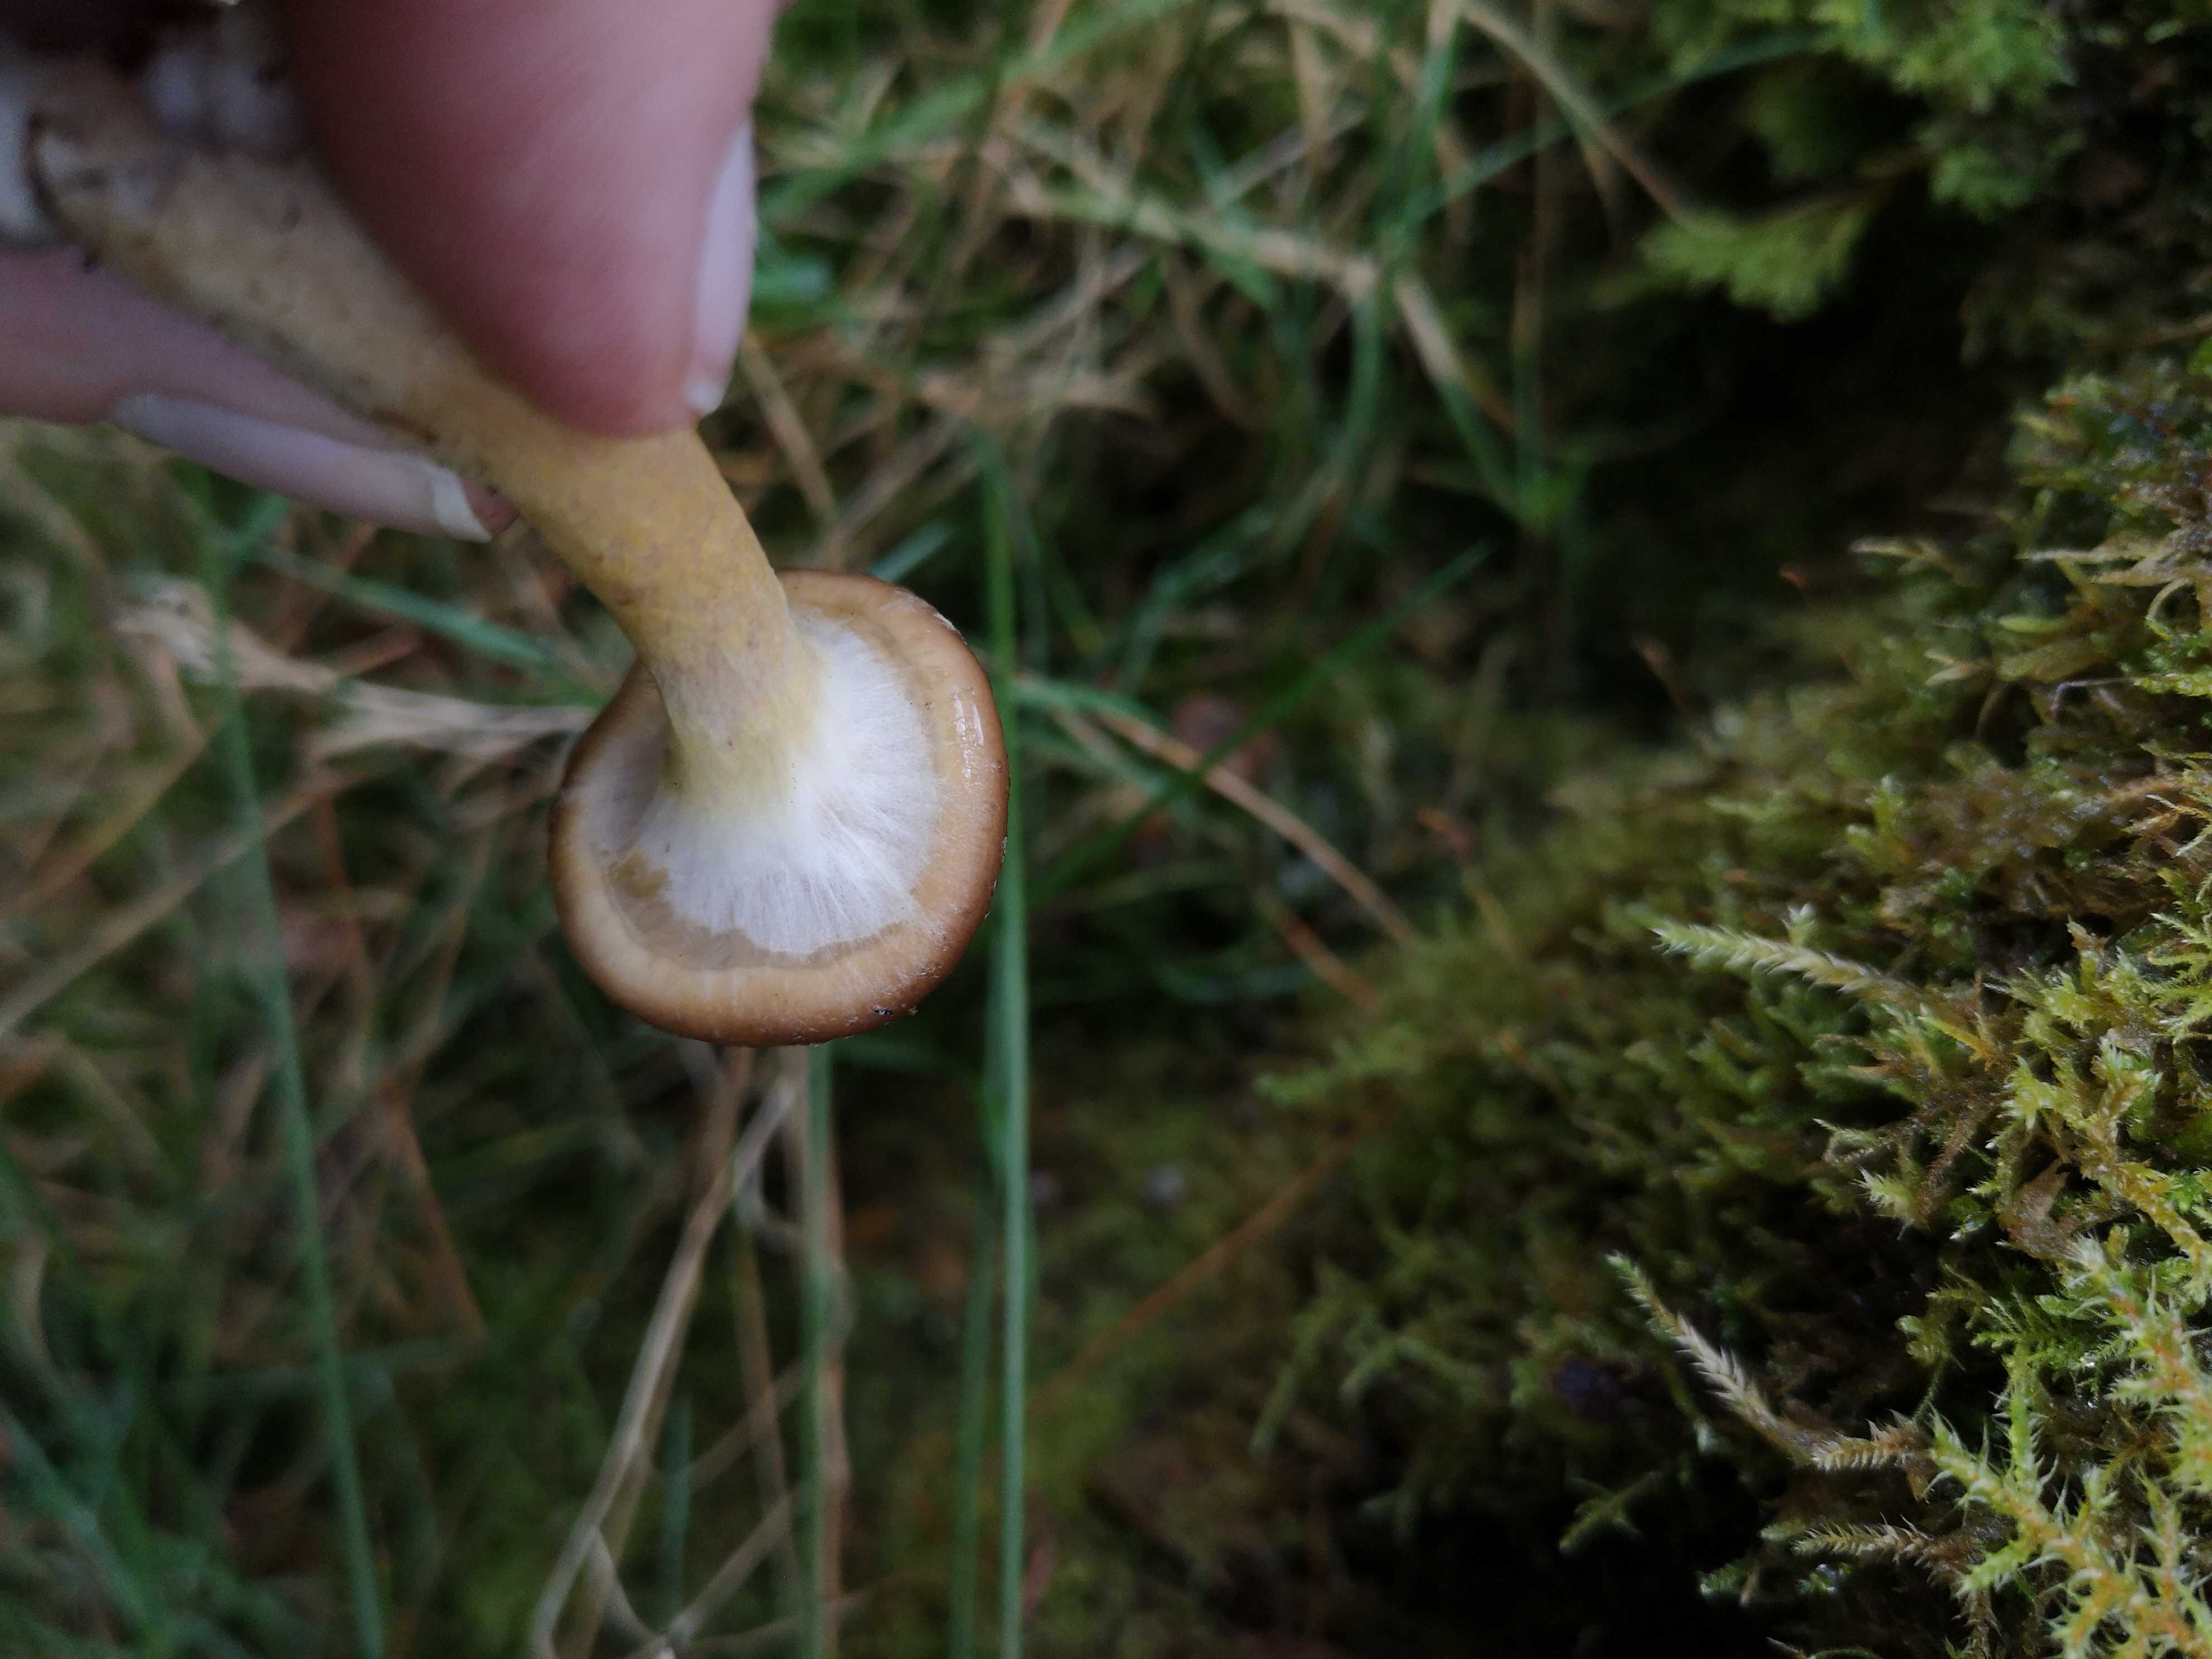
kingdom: Fungi
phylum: Basidiomycota
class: Agaricomycetes
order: Agaricales
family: Physalacriaceae
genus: Armillaria
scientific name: Armillaria lutea
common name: køllestokket honningsvamp
